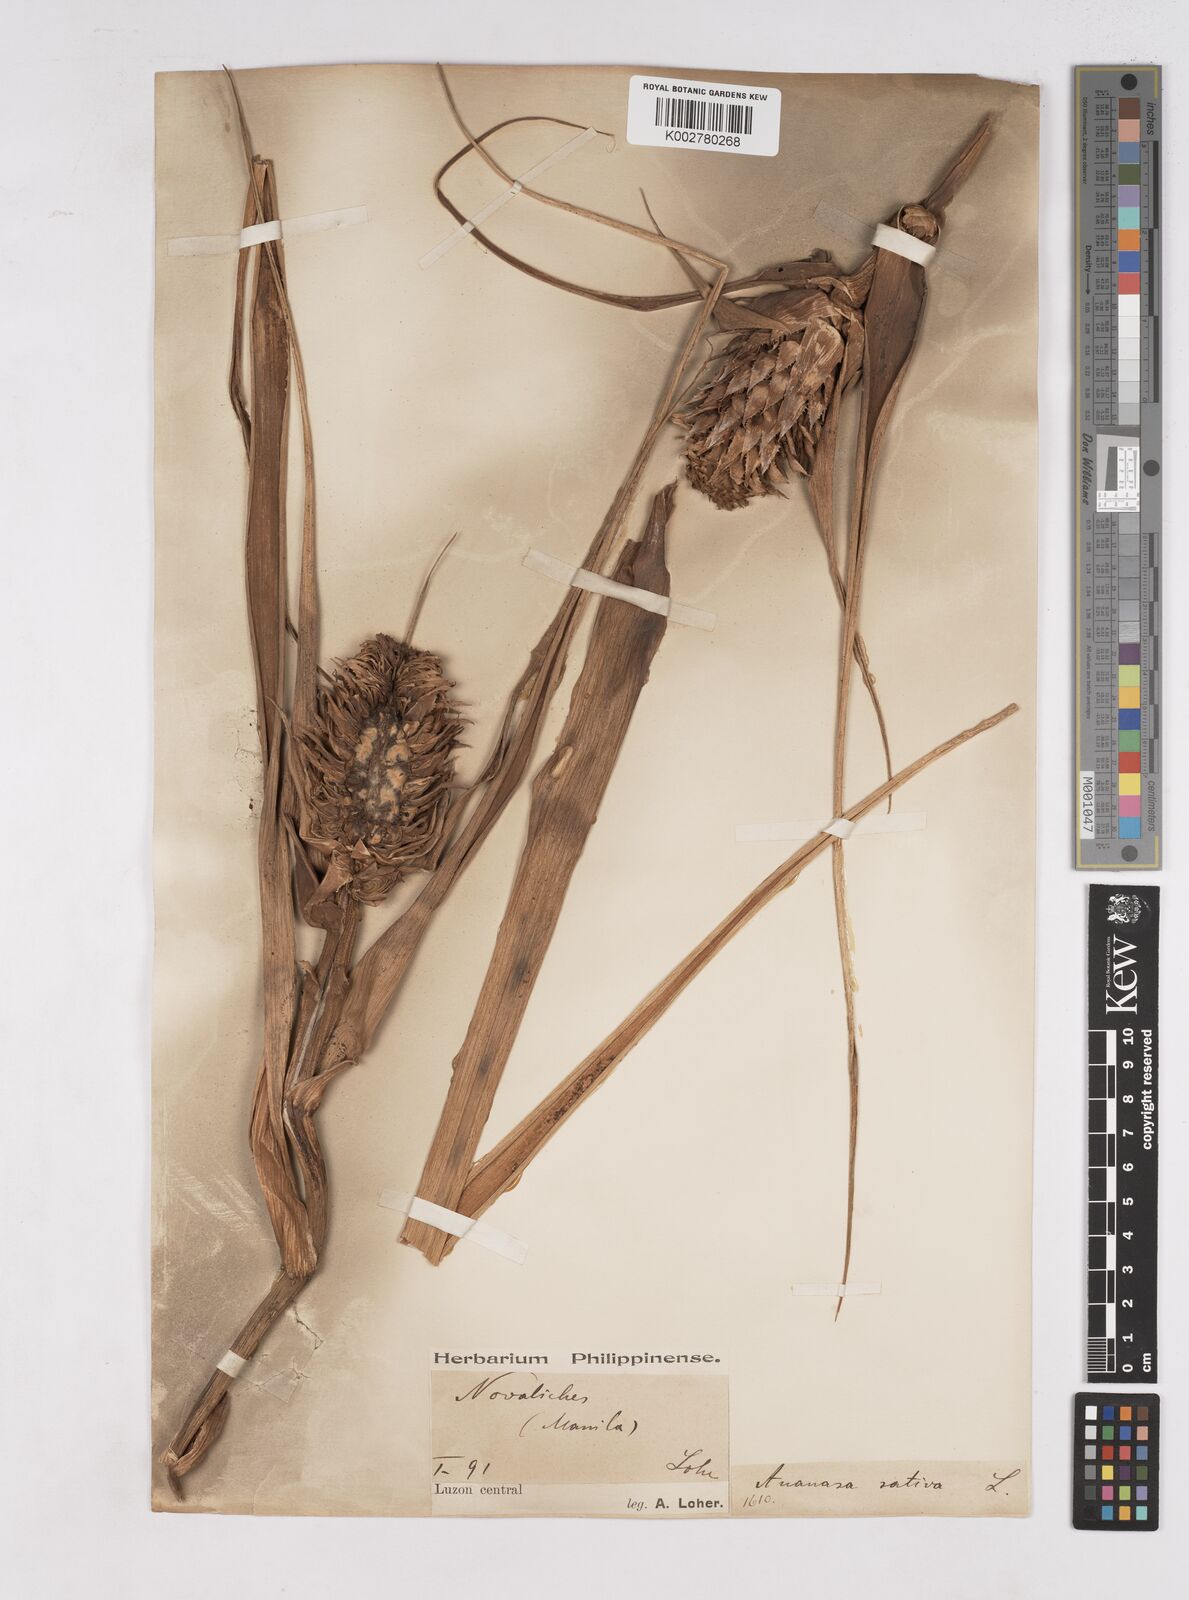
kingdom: Plantae
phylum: Tracheophyta
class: Liliopsida
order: Poales
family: Bromeliaceae
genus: Ananas
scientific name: Ananas comosus
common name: Pineapple
